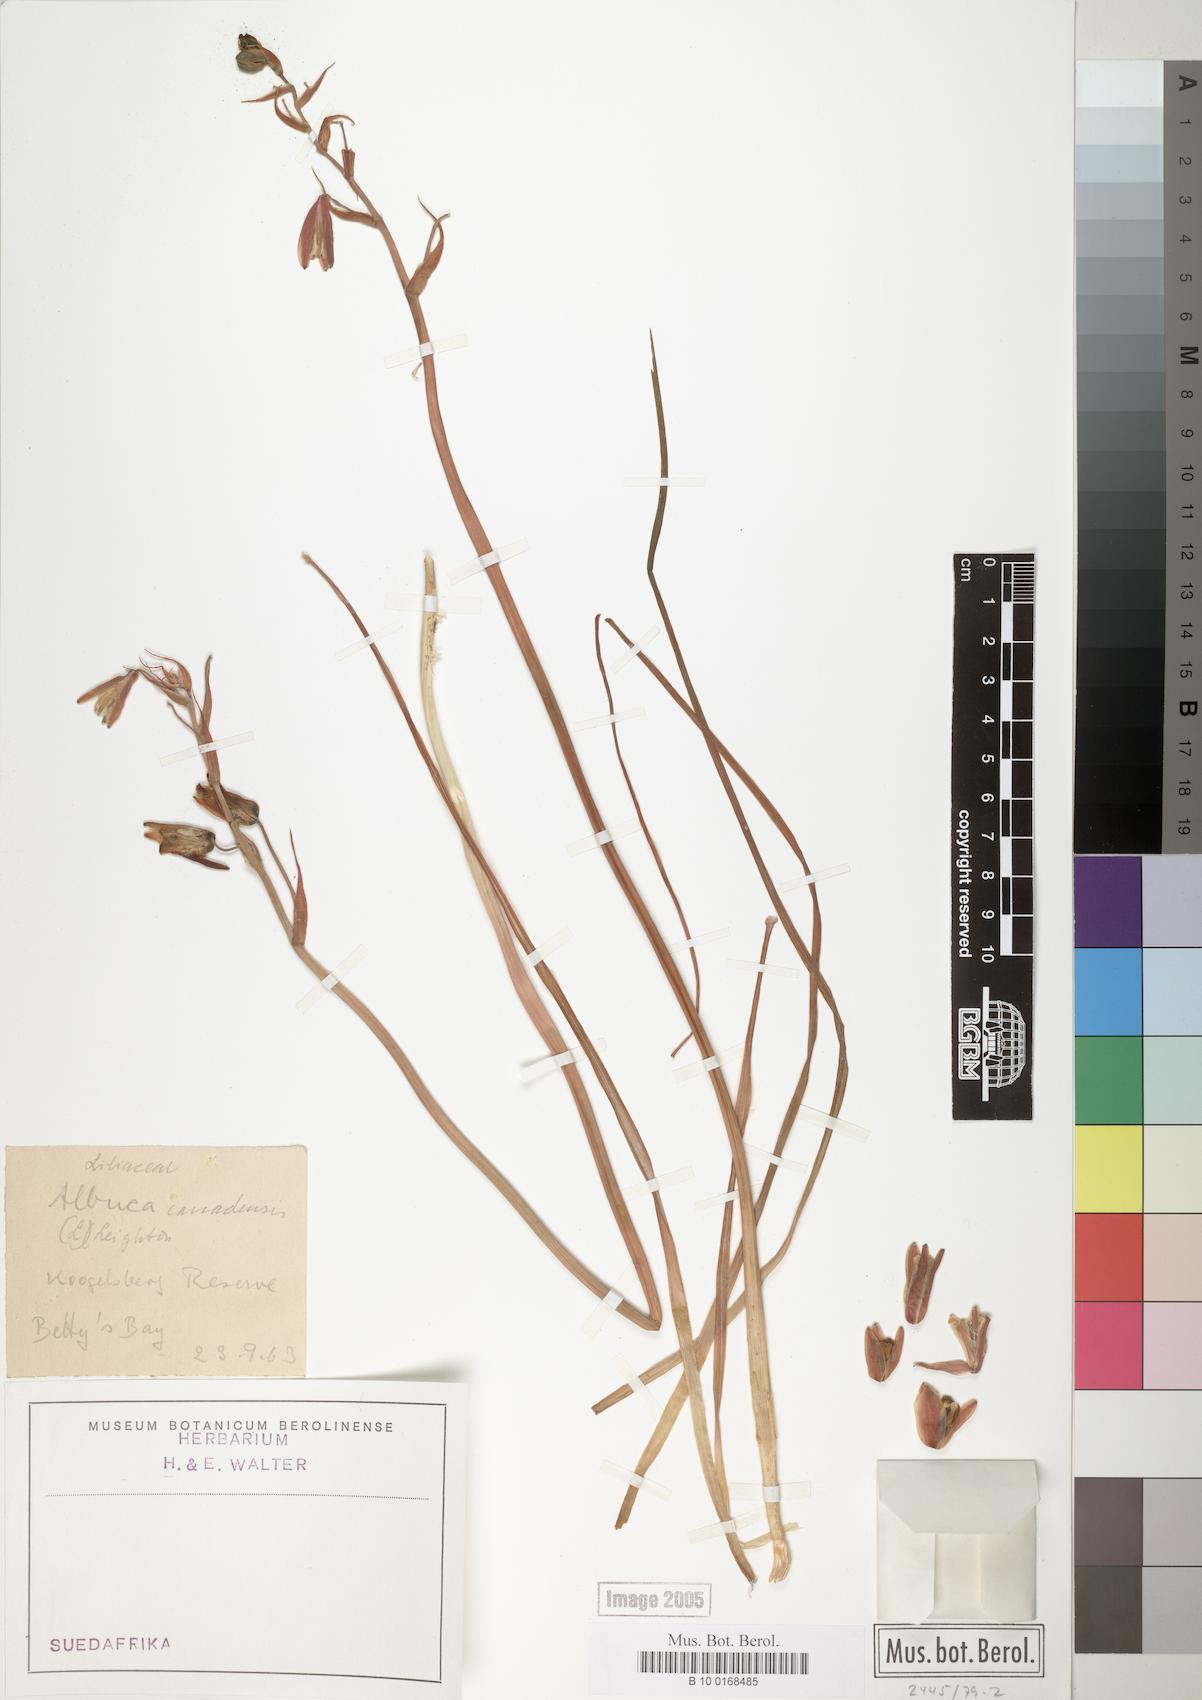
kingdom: Plantae
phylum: Tracheophyta
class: Liliopsida
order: Asparagales
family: Asparagaceae
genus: Albuca
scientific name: Albuca canadensis
